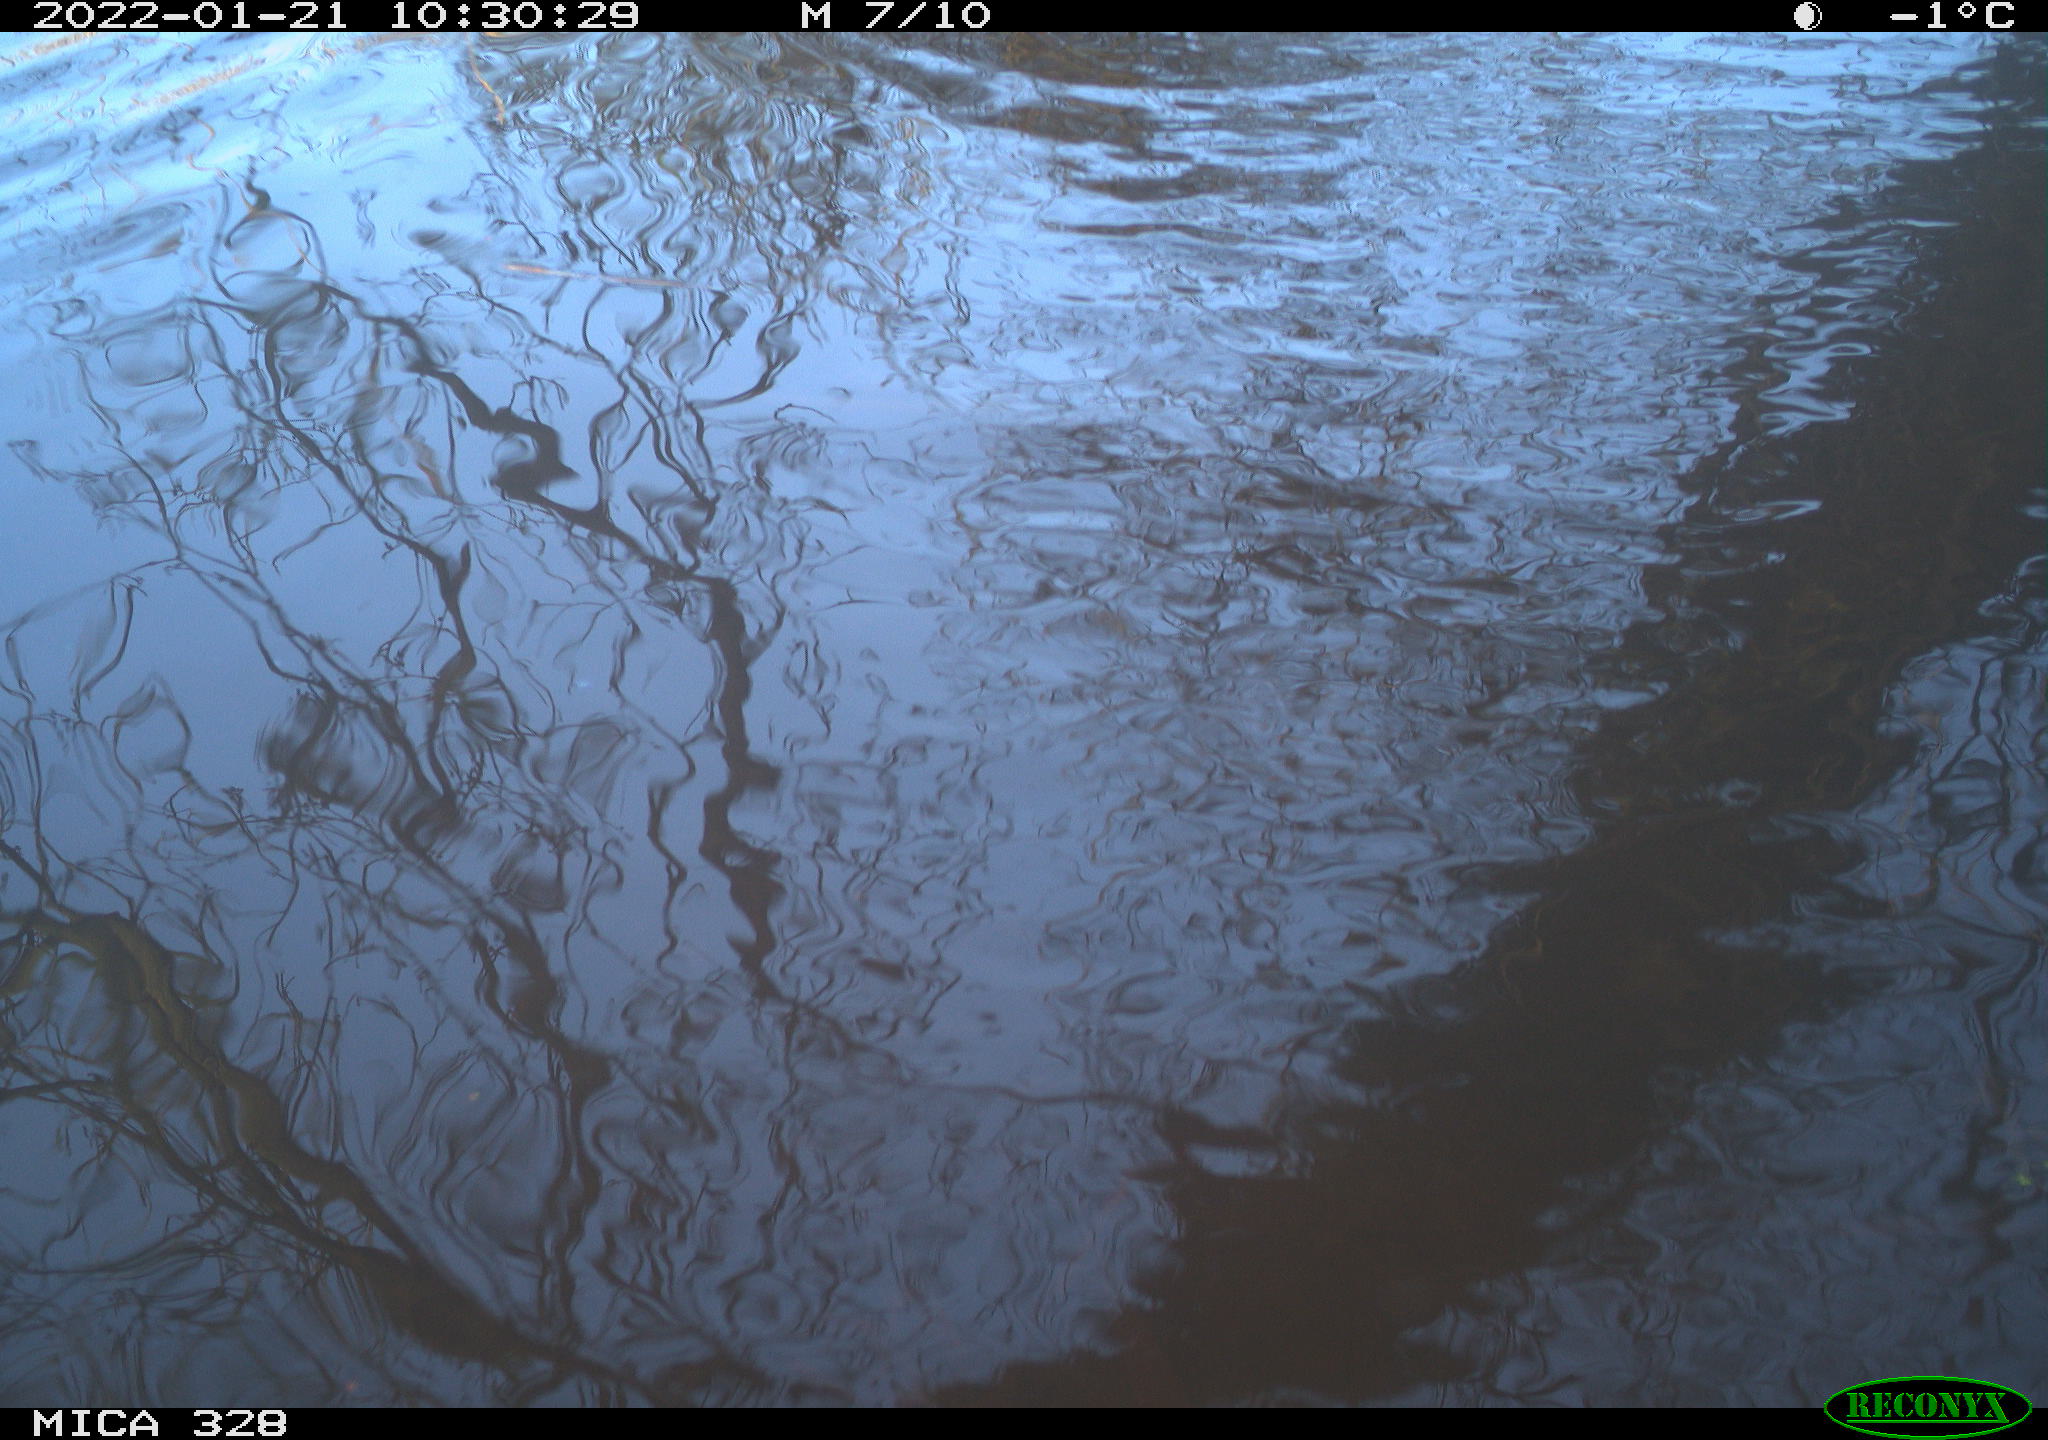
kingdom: Animalia
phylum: Chordata
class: Mammalia
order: Rodentia
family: Cricetidae
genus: Ondatra
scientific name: Ondatra zibethicus
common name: Muskrat
